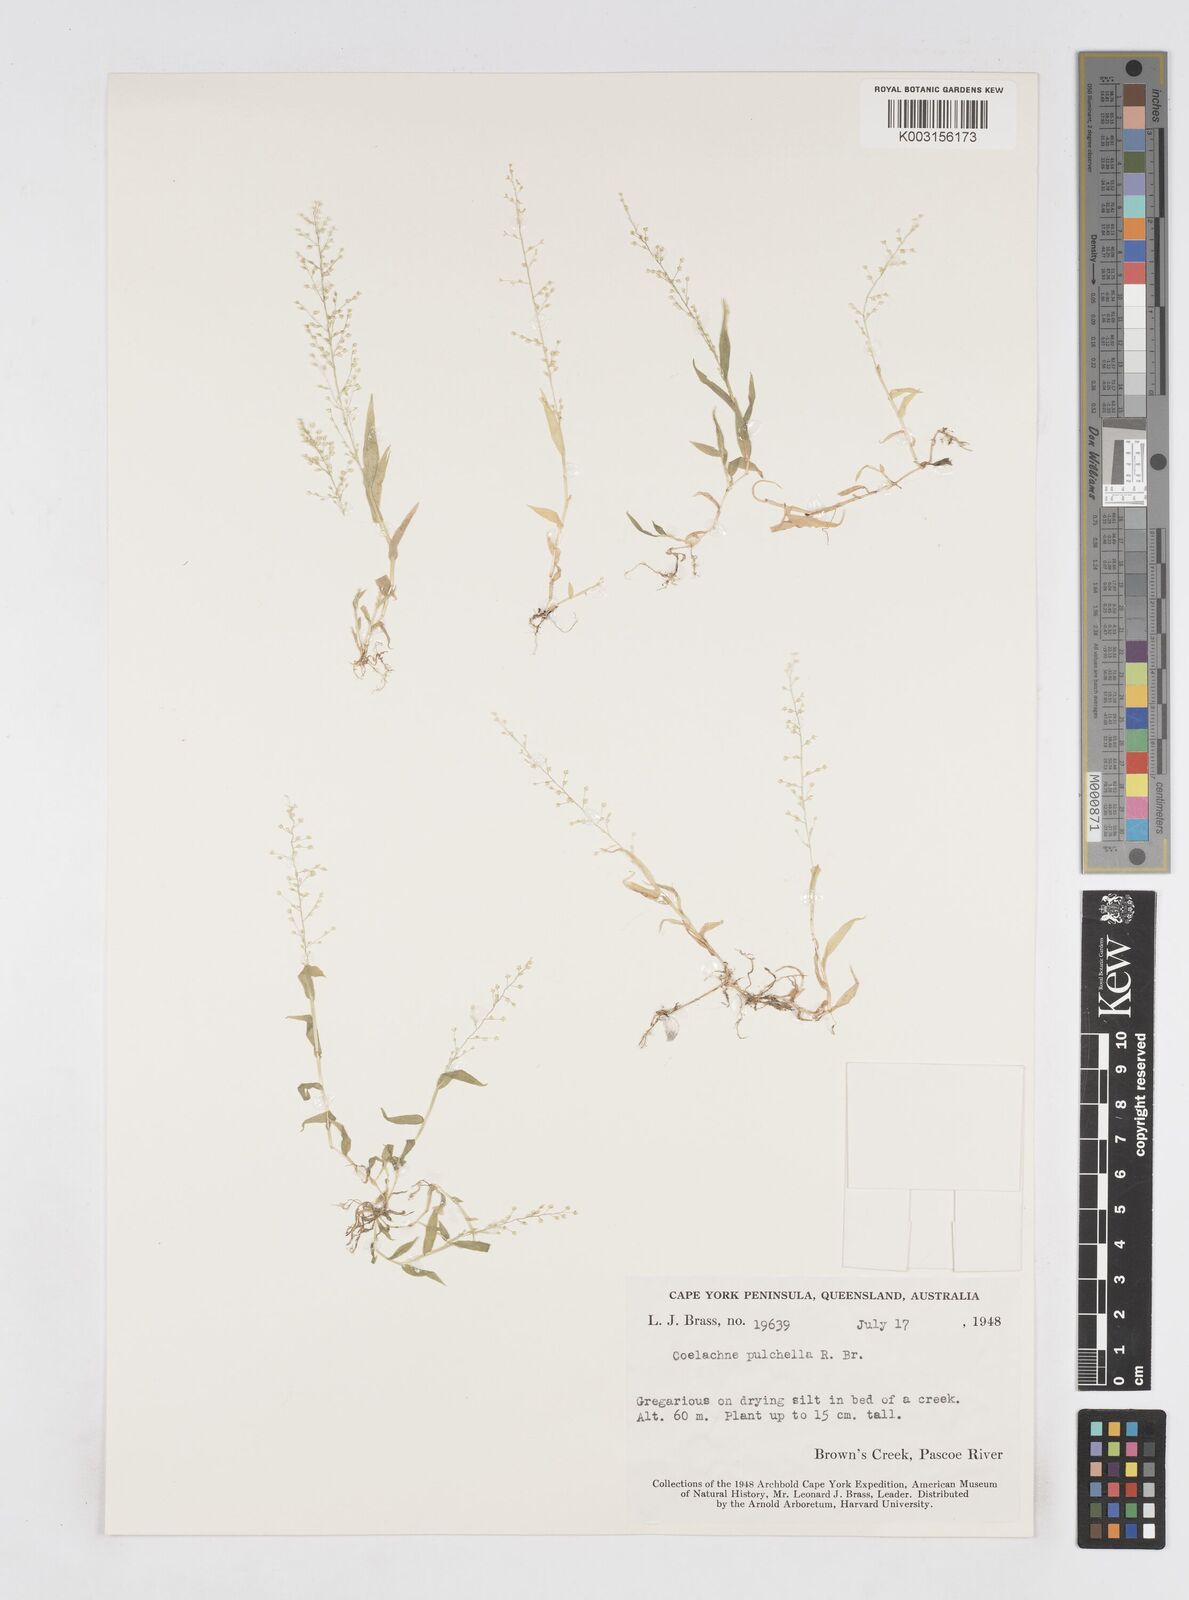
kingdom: Plantae
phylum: Tracheophyta
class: Liliopsida
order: Poales
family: Poaceae
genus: Coelachne
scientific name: Coelachne pulchella
